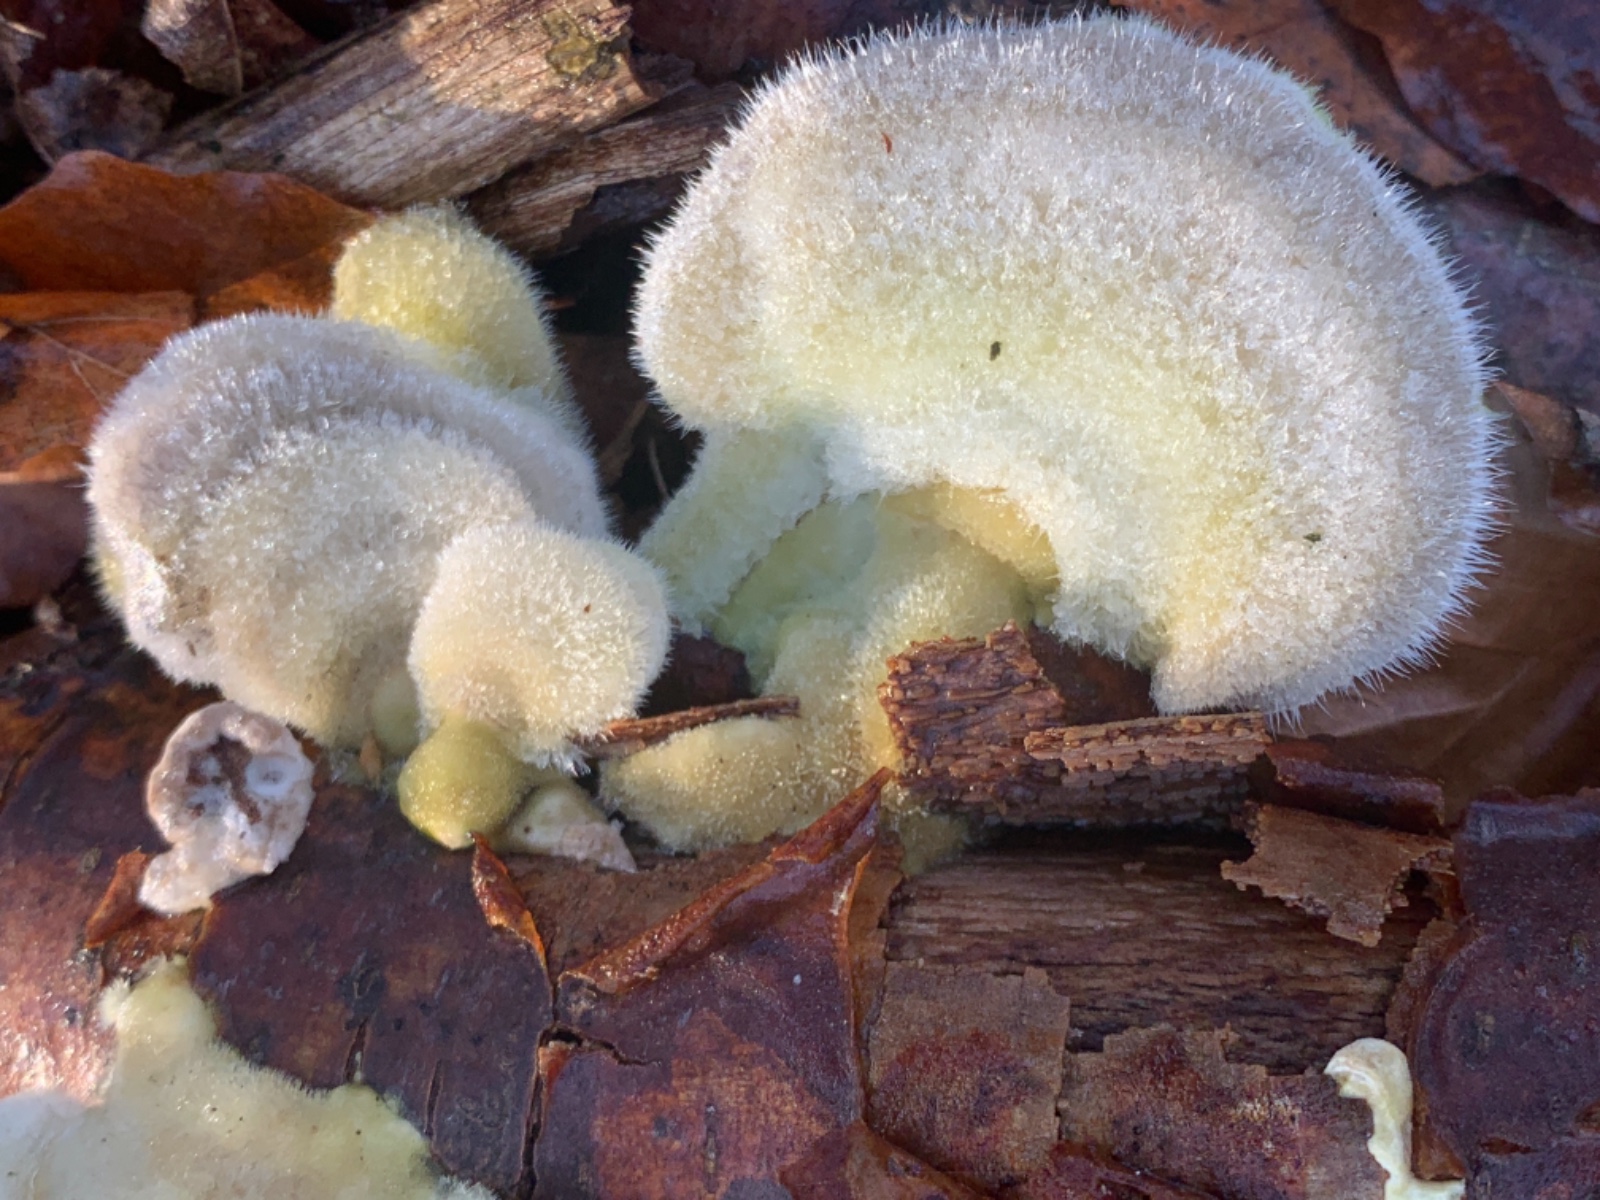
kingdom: Fungi
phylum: Basidiomycota
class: Agaricomycetes
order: Polyporales
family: Polyporaceae
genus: Trametes
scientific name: Trametes hirsuta
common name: håret læderporesvamp
